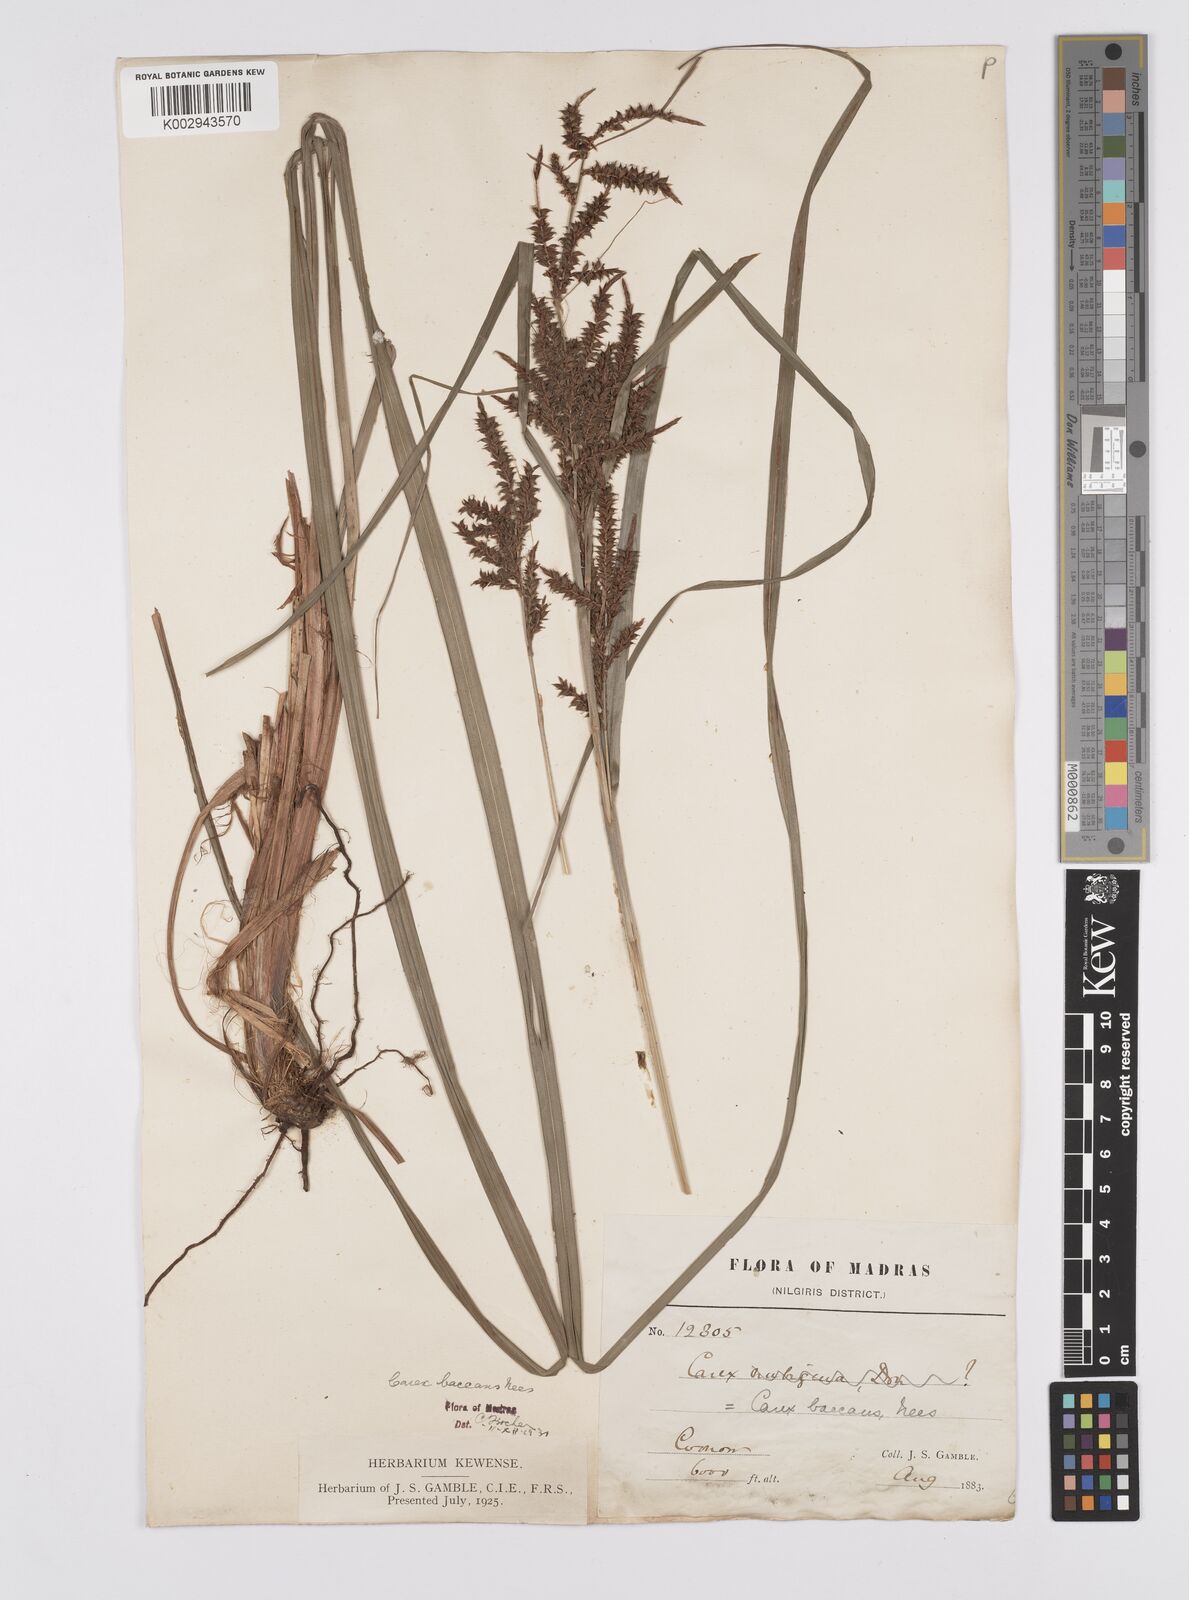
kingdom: Plantae
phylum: Tracheophyta
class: Liliopsida
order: Poales
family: Cyperaceae
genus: Carex
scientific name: Carex baccans
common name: Crimson seeded sedge
